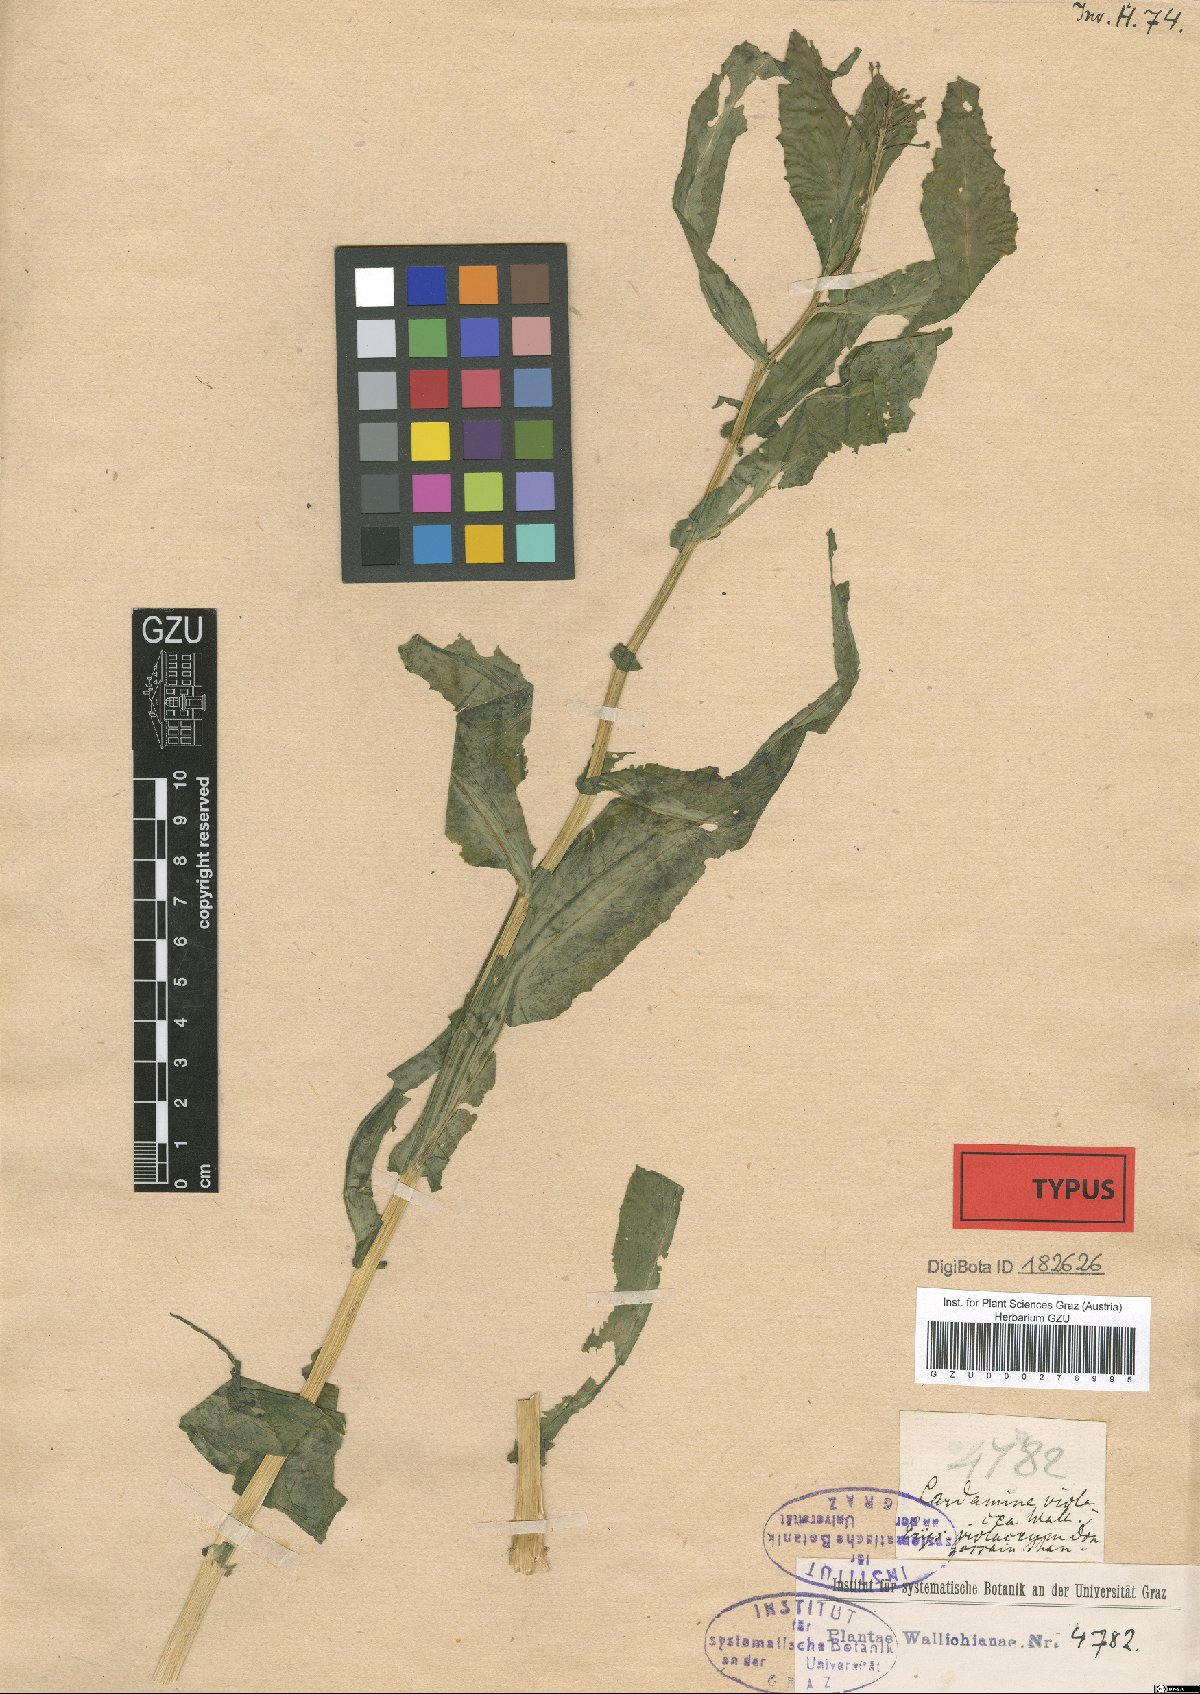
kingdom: Plantae
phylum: Tracheophyta
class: Magnoliopsida
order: Brassicales
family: Brassicaceae
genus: Cardamine
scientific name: Cardamine violacea
